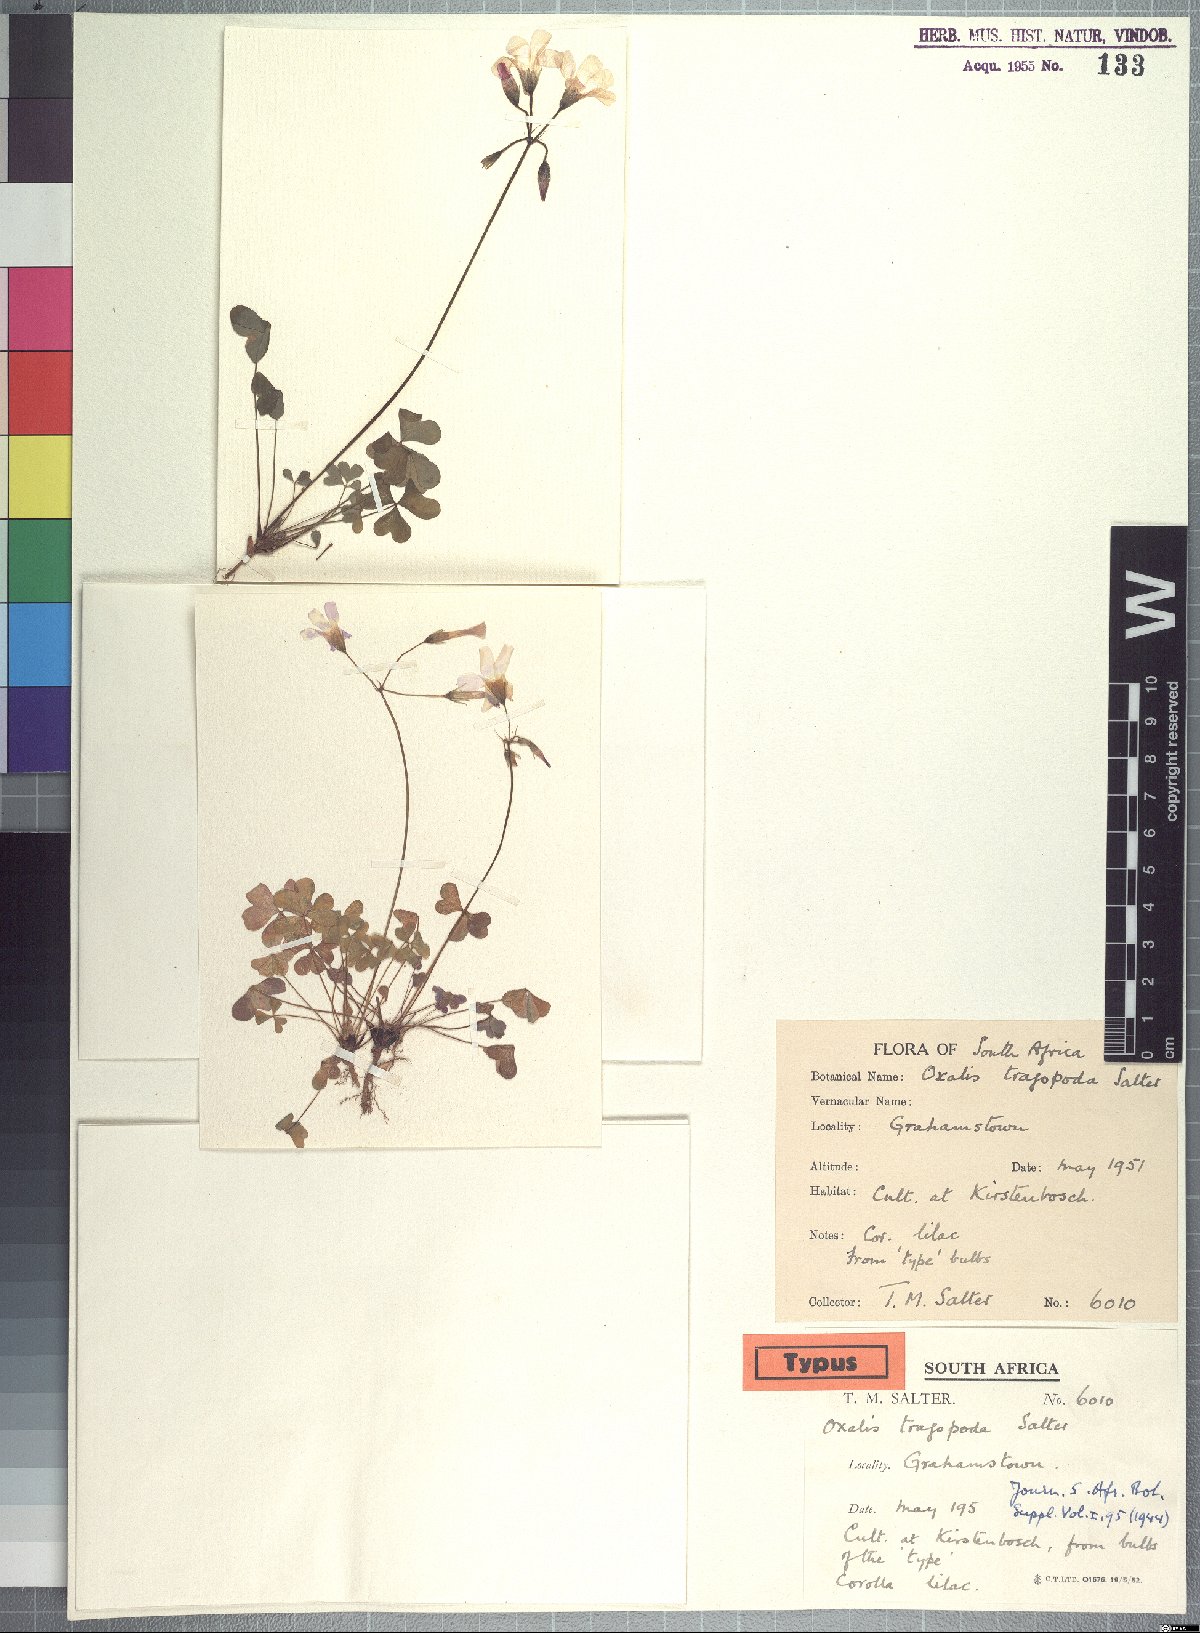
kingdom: Plantae
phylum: Tracheophyta
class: Magnoliopsida
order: Oxalidales
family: Oxalidaceae
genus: Oxalis
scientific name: Oxalis tragopoda
